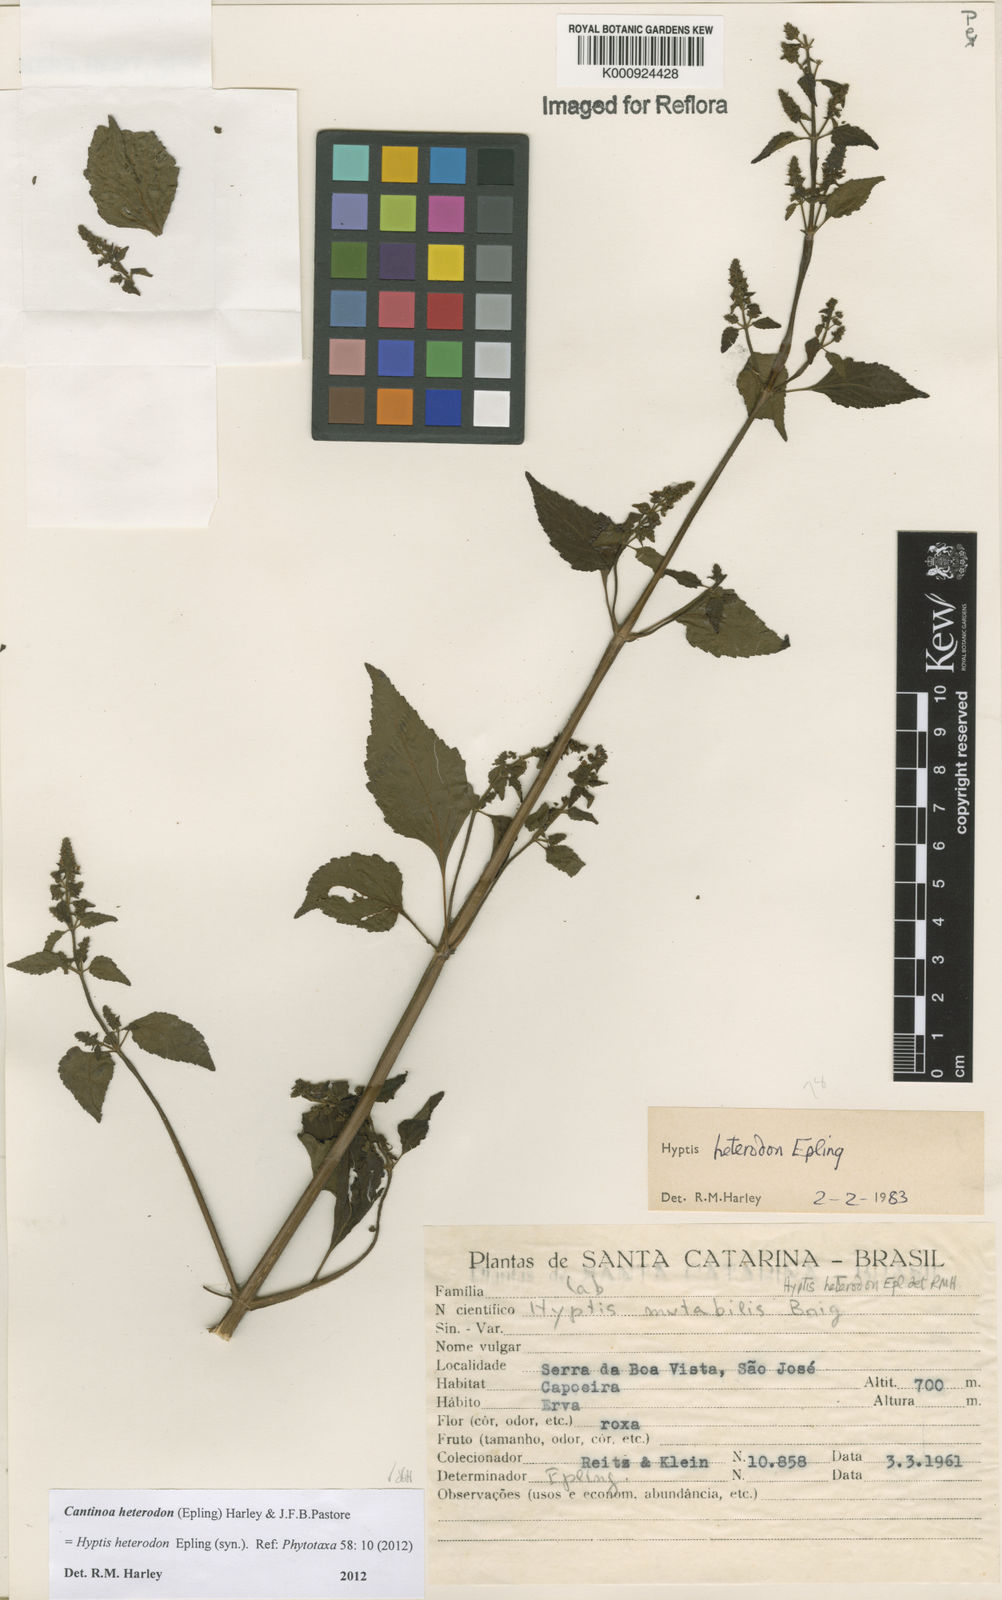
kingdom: Plantae
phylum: Tracheophyta
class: Magnoliopsida
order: Lamiales
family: Lamiaceae
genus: Cantinoa
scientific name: Cantinoa heterodon
